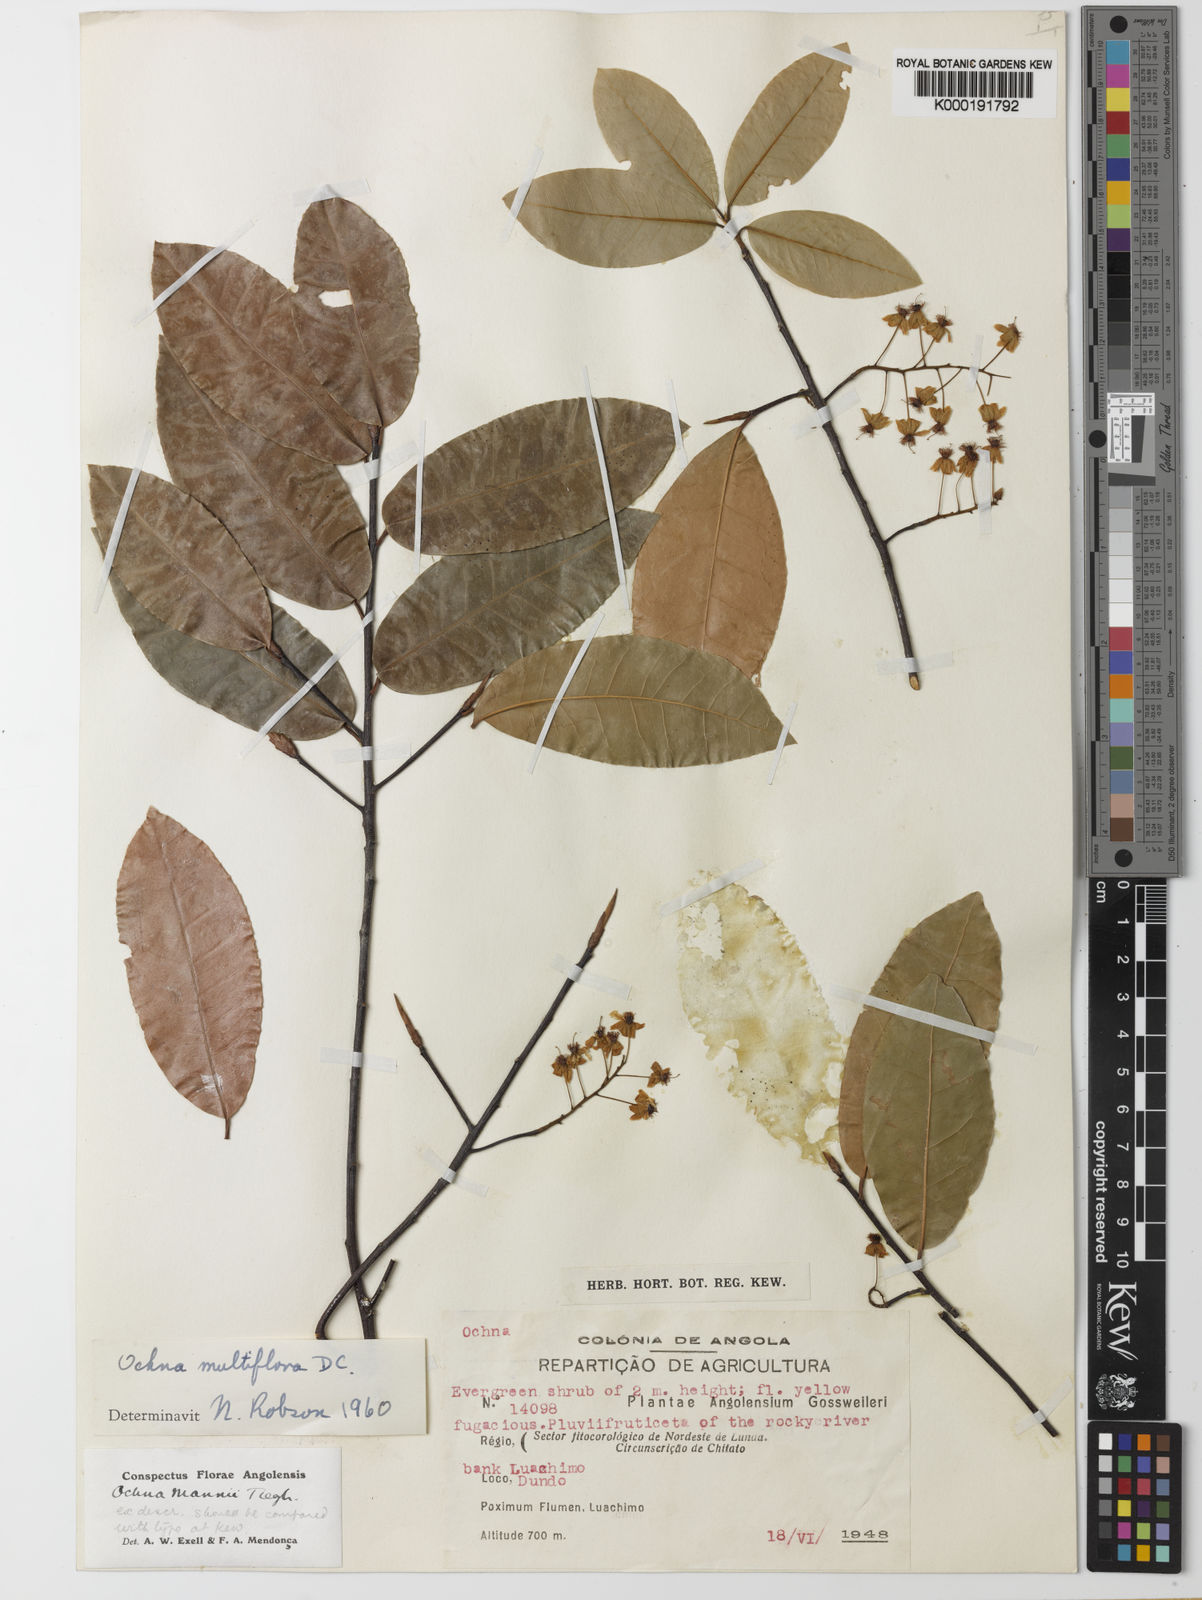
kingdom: Plantae
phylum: Tracheophyta
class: Magnoliopsida
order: Malpighiales
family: Ochnaceae
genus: Ochna
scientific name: Ochna multiflora
